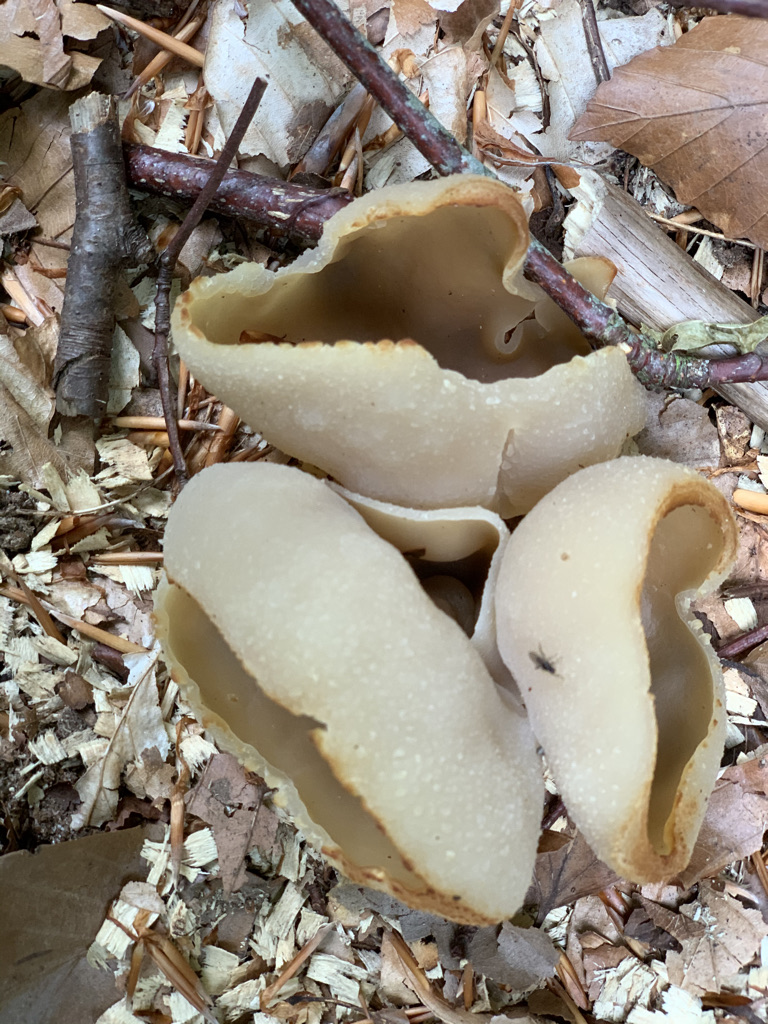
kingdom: Fungi
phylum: Ascomycota
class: Pezizomycetes
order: Pezizales
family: Pezizaceae
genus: Peziza
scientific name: Peziza
